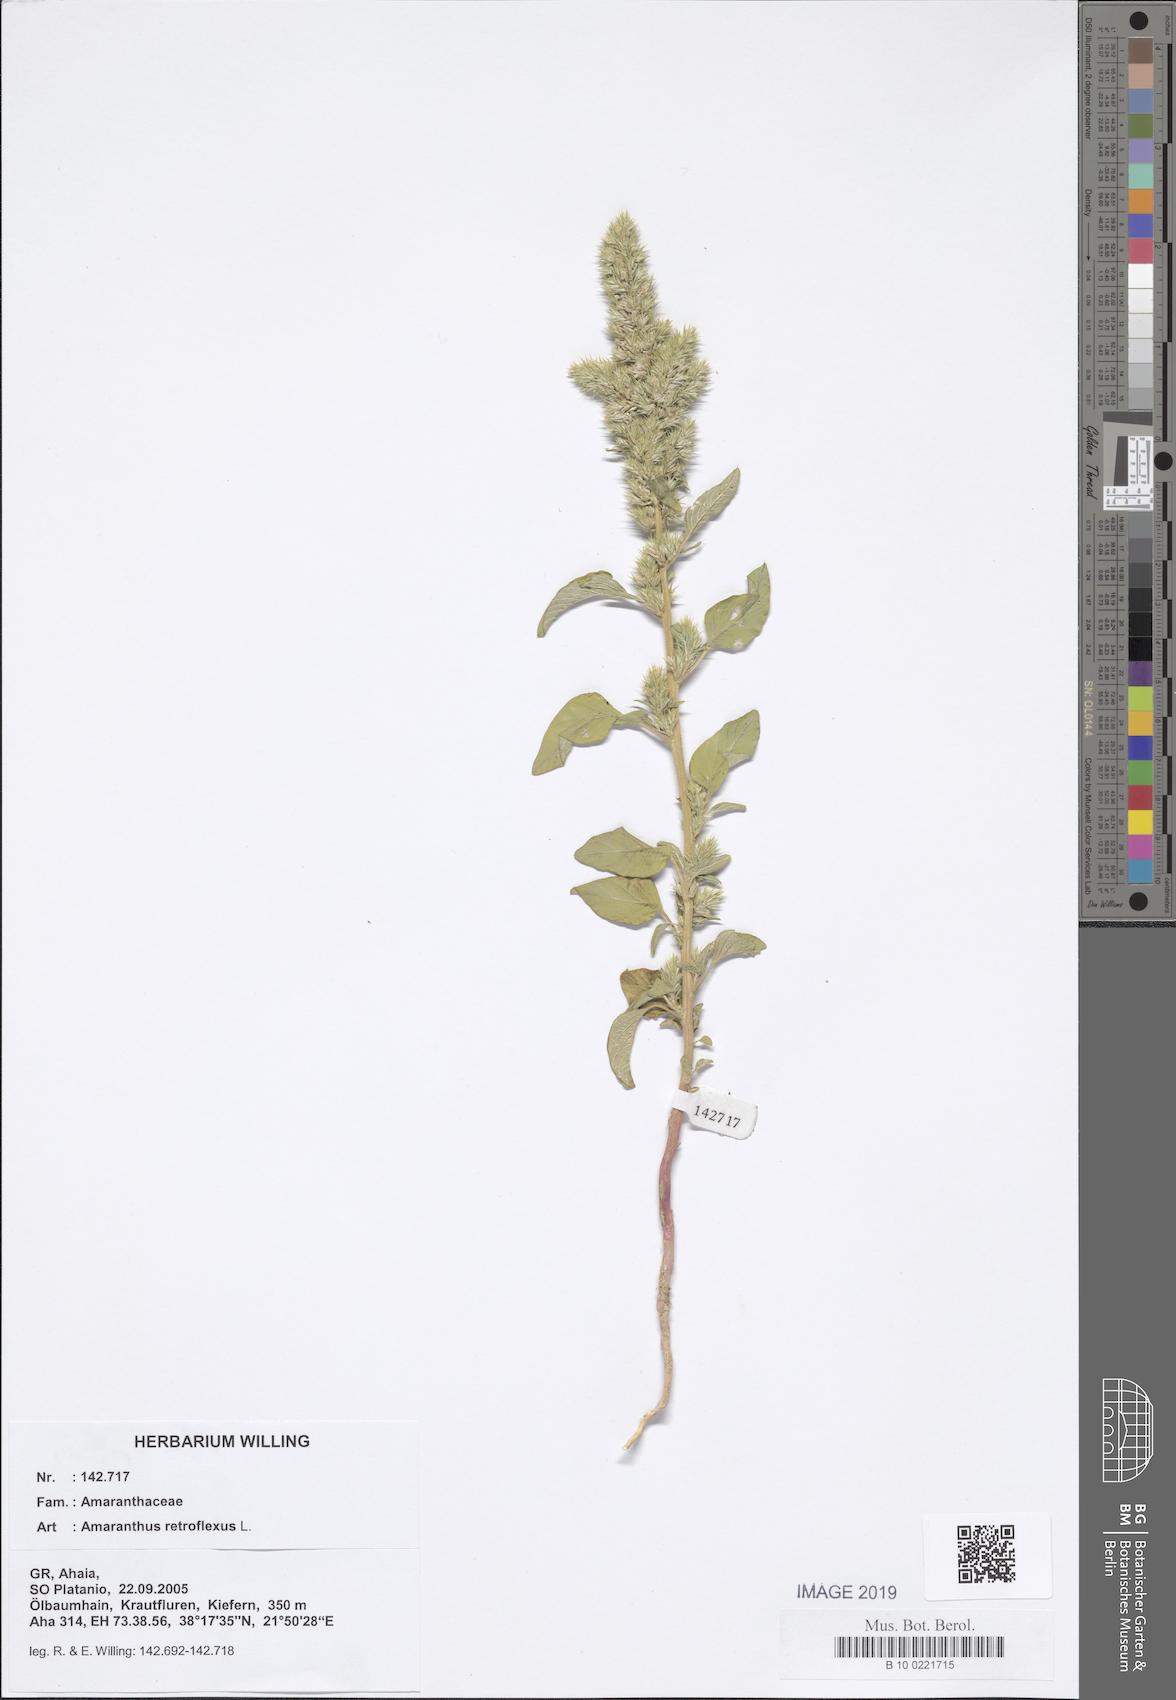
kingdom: Plantae
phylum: Tracheophyta
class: Magnoliopsida
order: Caryophyllales
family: Amaranthaceae
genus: Amaranthus
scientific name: Amaranthus retroflexus
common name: Redroot amaranth
